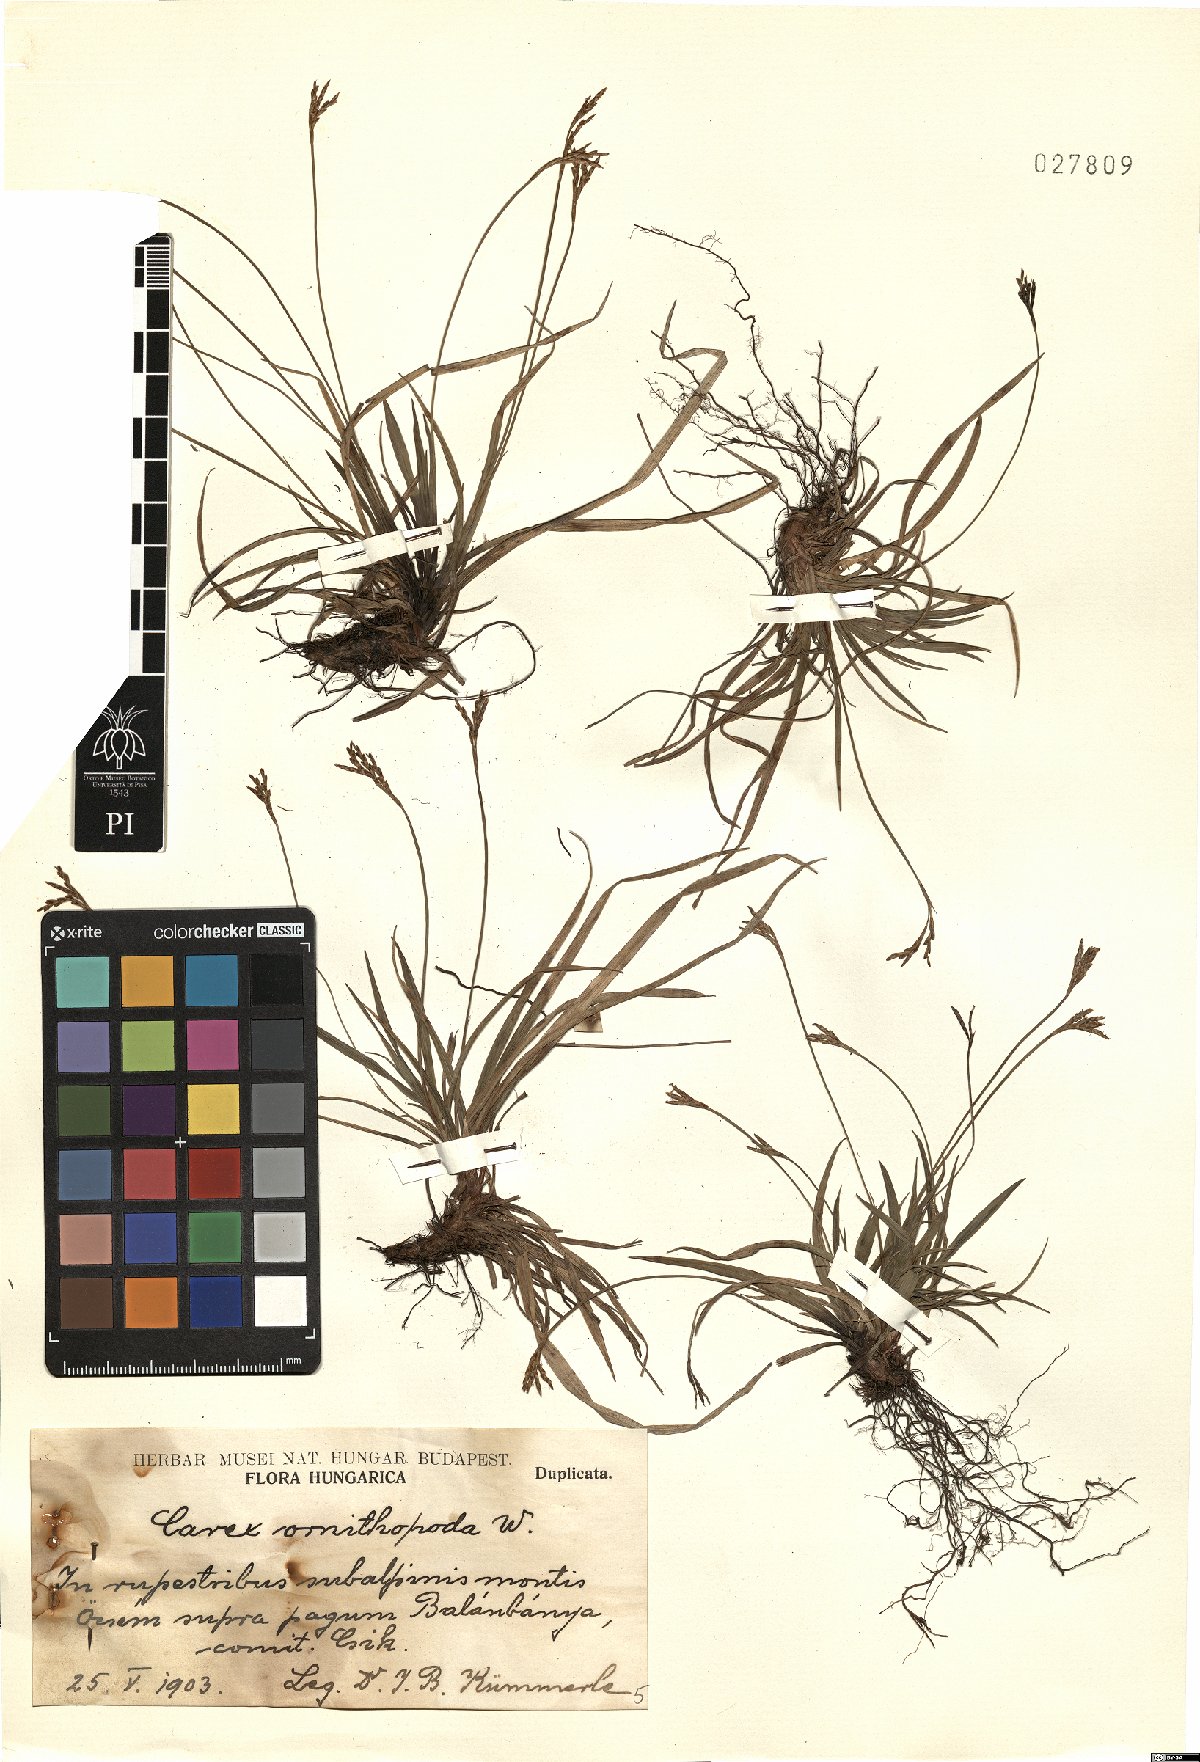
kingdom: Plantae
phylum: Tracheophyta
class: Liliopsida
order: Poales
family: Cyperaceae
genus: Carex
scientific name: Carex ornithopoda
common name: Bird's-foot sedge
